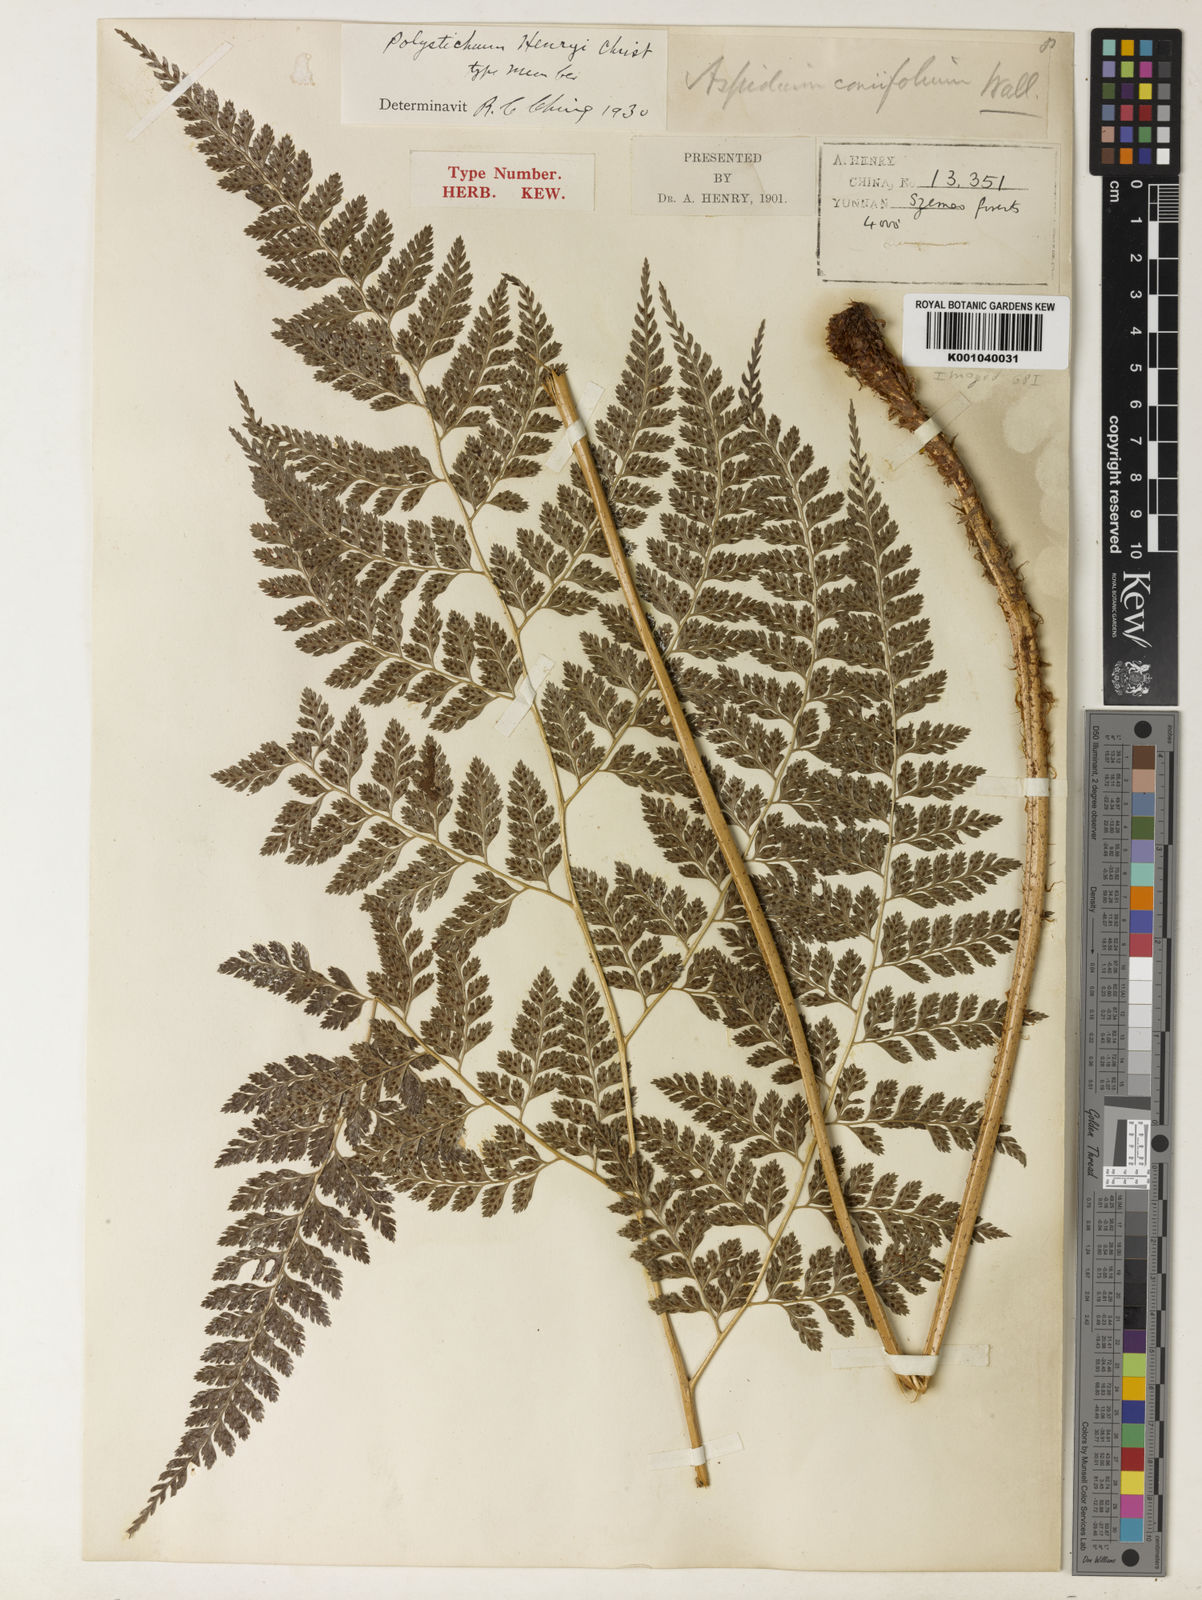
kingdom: Plantae
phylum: Tracheophyta
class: Polypodiopsida
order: Polypodiales
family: Dryopteridaceae
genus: Arachniodes
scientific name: Arachniodes henryi
